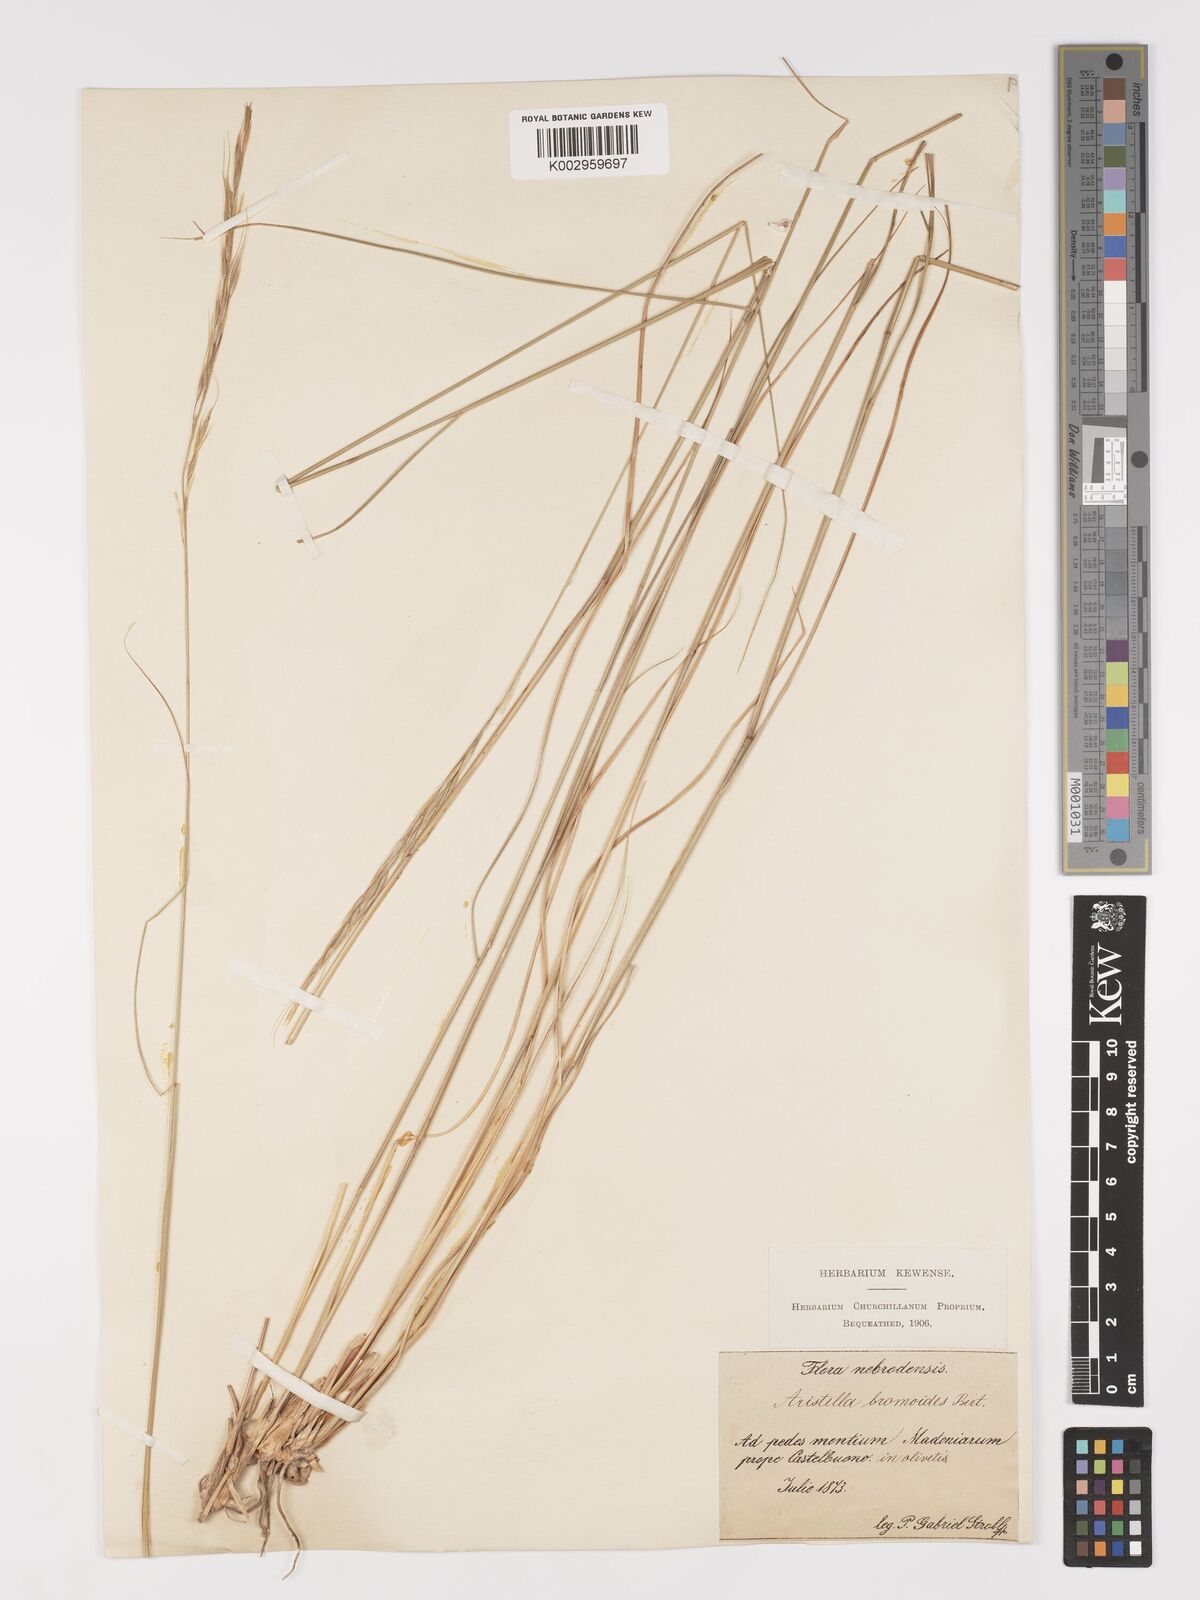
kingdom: Plantae
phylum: Tracheophyta
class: Liliopsida
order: Poales
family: Poaceae
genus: Achnatherum
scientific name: Achnatherum bromoides
